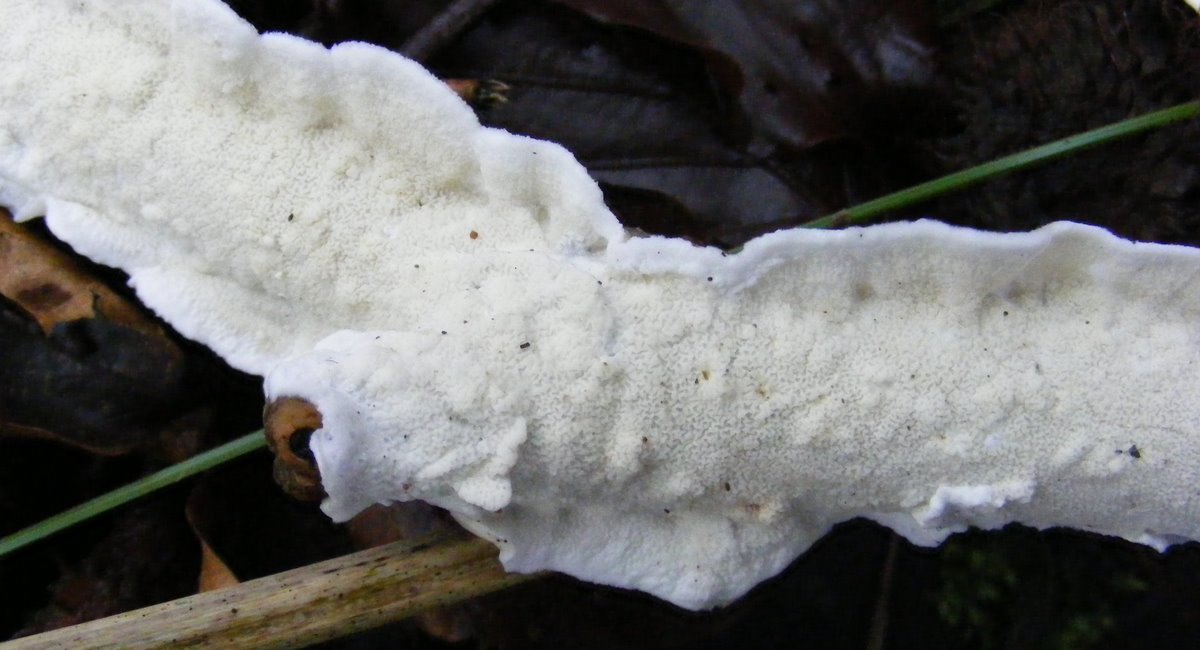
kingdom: Fungi
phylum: Basidiomycota
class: Agaricomycetes
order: Polyporales
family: Irpicaceae
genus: Byssomerulius
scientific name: Byssomerulius corium
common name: læder-åresvamp
